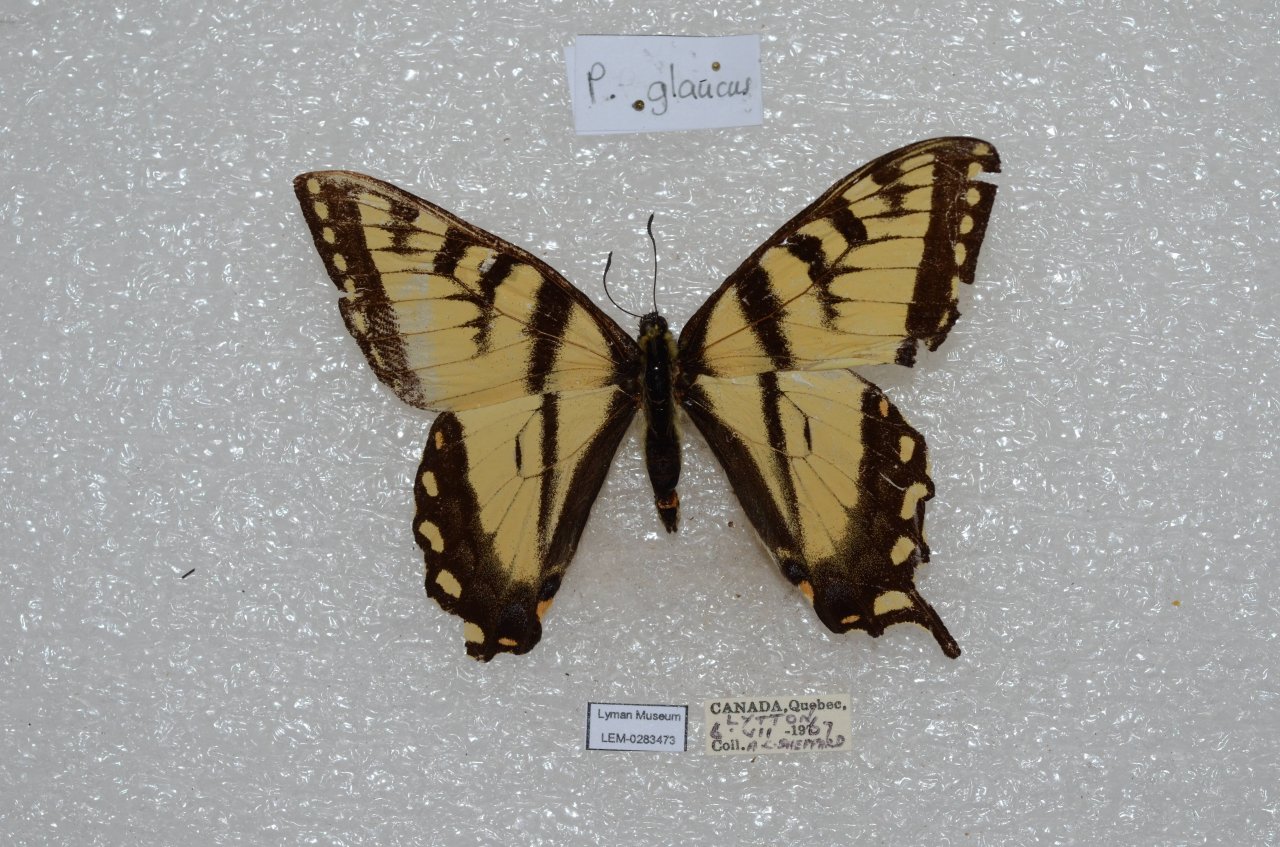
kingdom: Animalia
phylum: Arthropoda
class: Insecta
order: Lepidoptera
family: Papilionidae
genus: Pterourus
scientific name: Pterourus canadensis
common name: Canadian Tiger Swallowtail
